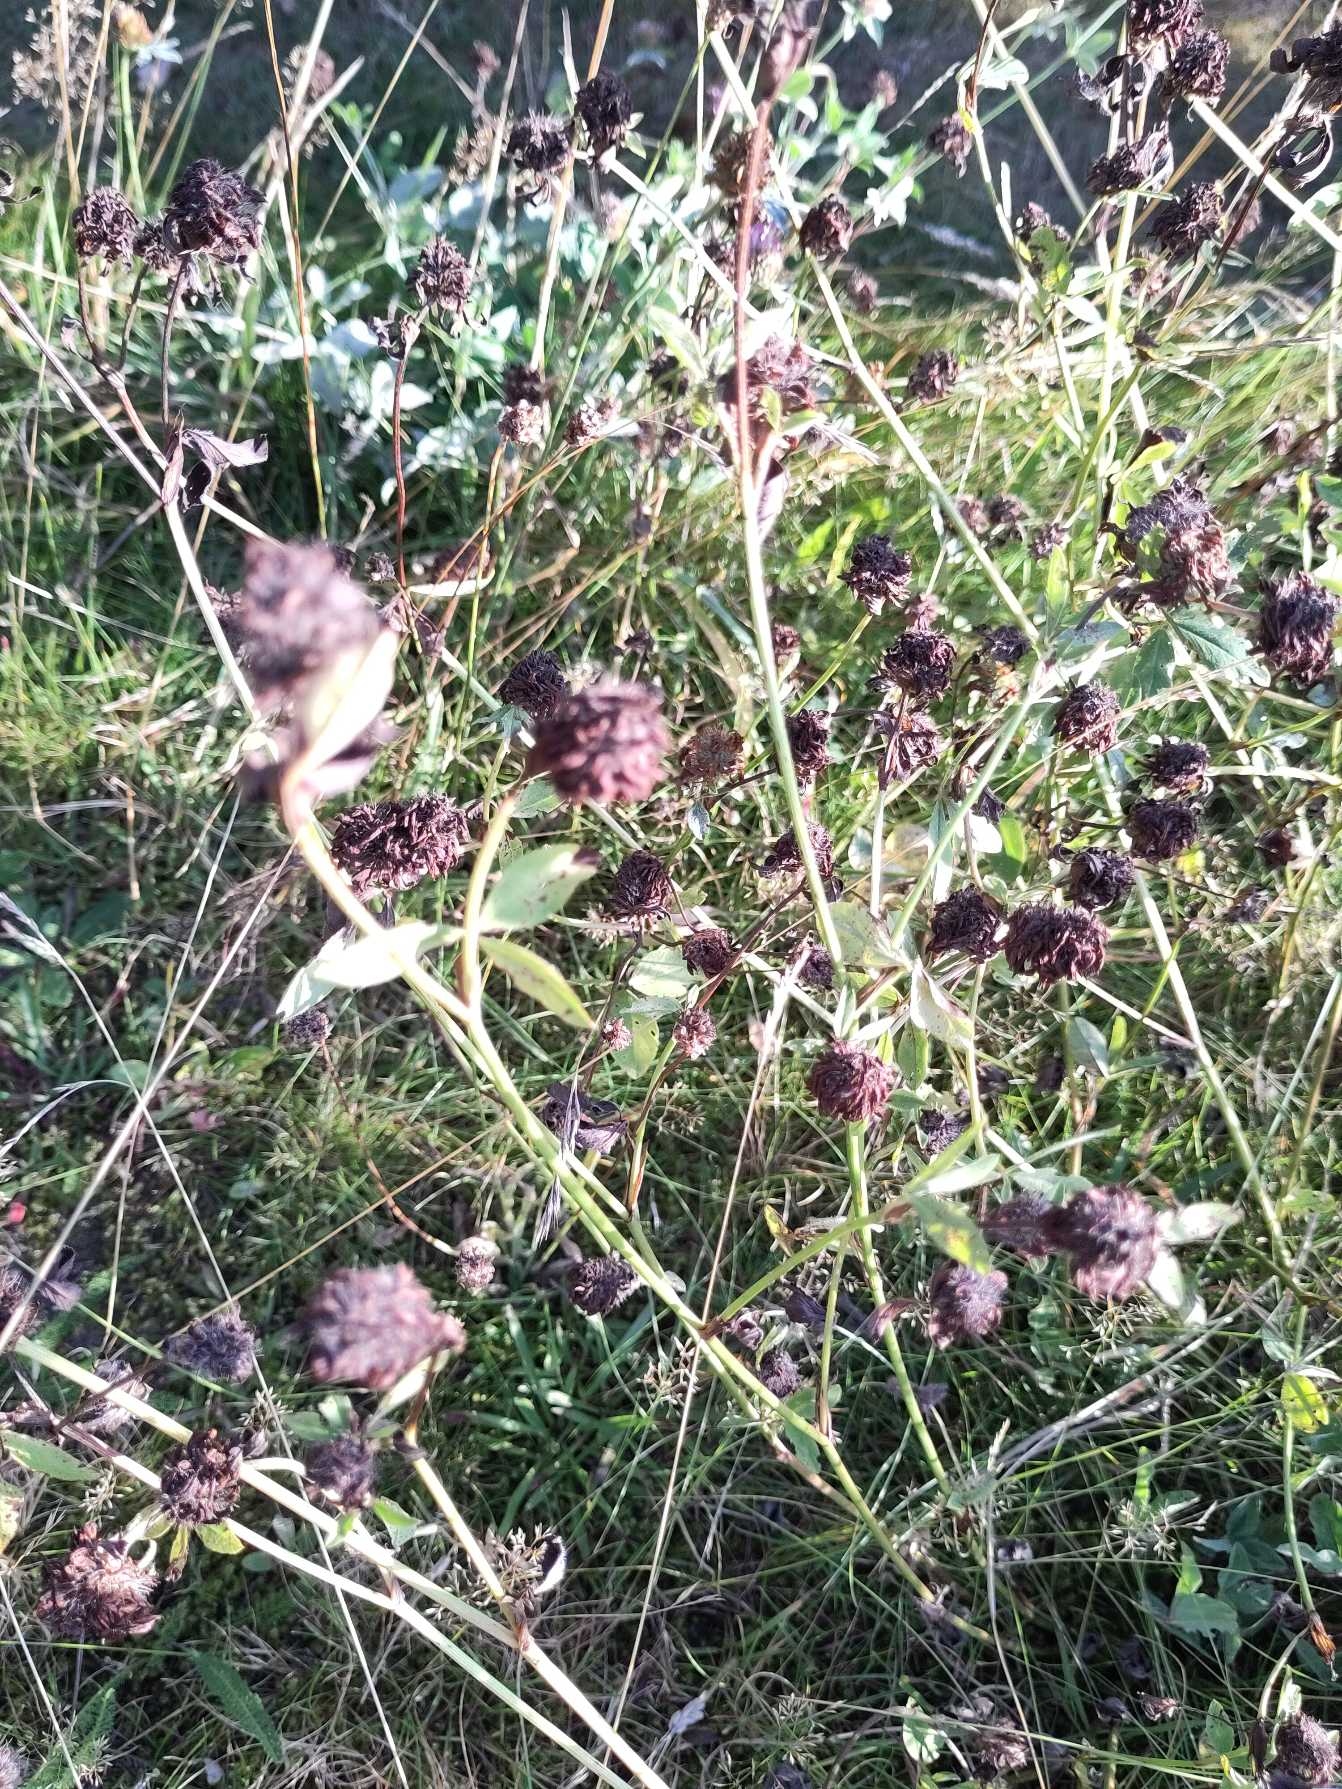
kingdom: Plantae
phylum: Tracheophyta
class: Magnoliopsida
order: Fabales
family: Fabaceae
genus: Trifolium
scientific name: Trifolium pratense
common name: Rød-kløver
